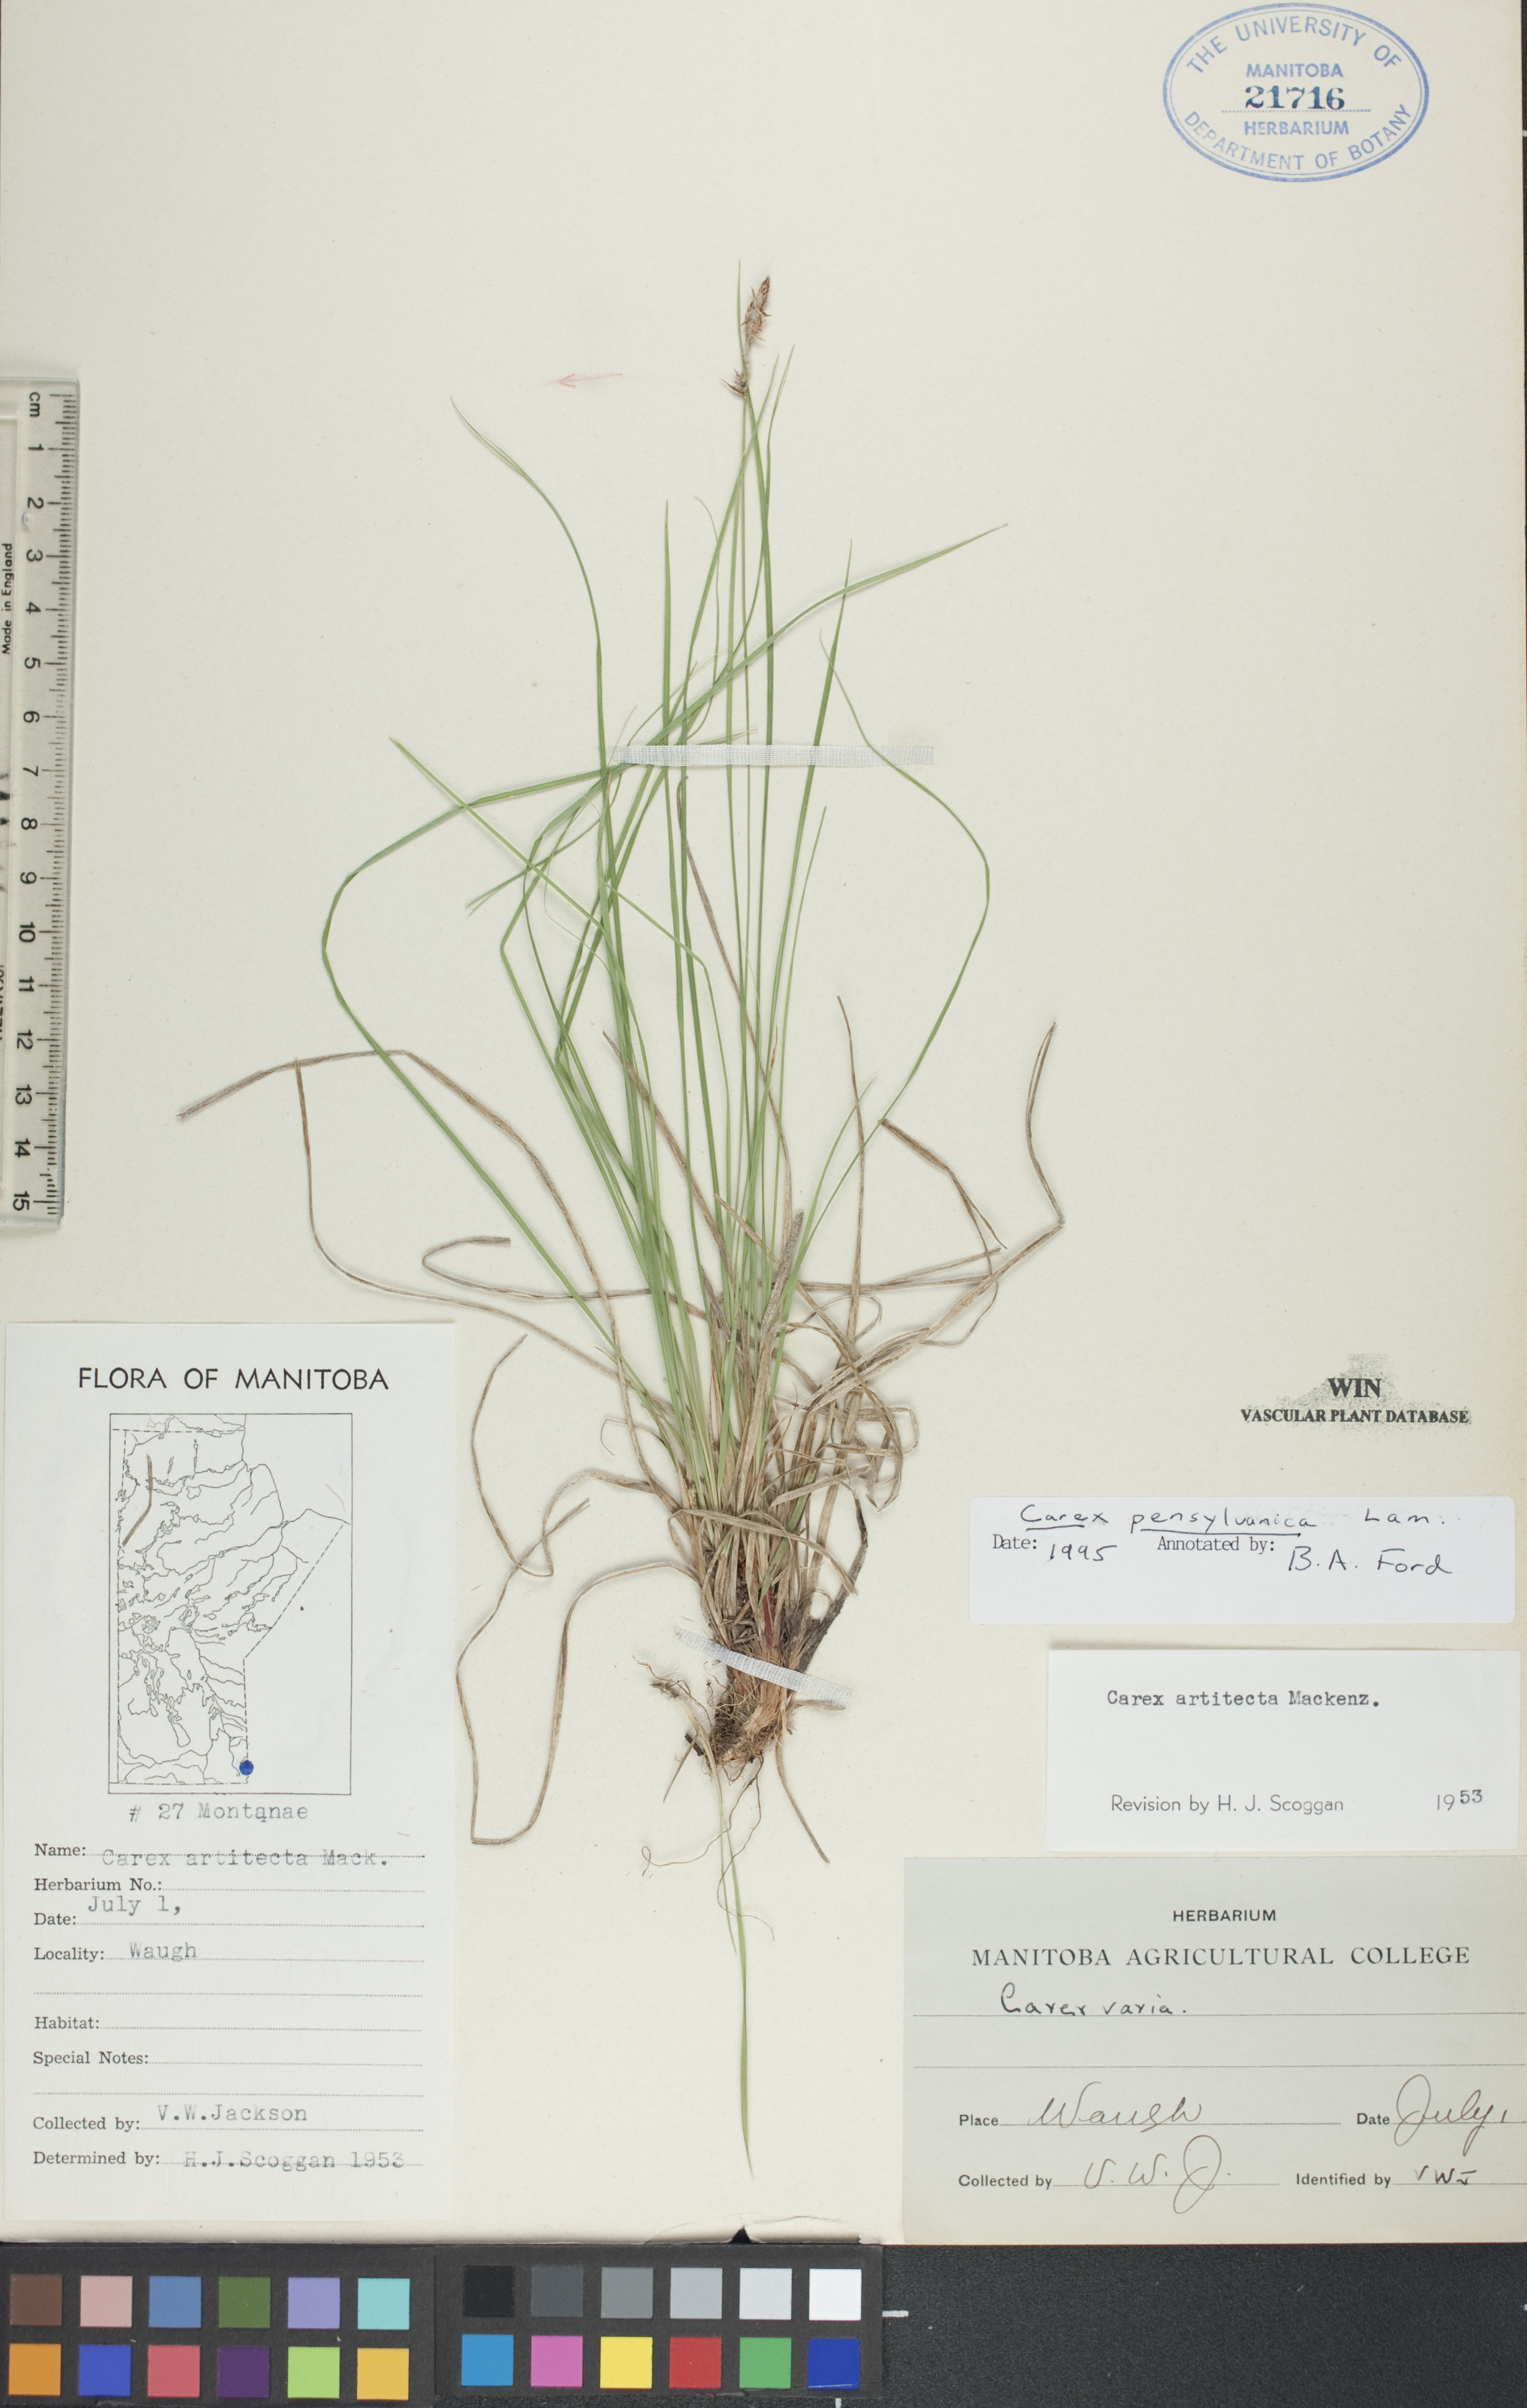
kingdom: Plantae
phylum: Tracheophyta
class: Liliopsida
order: Poales
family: Cyperaceae
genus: Carex
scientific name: Carex pensylvanica
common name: Common oak sedge
